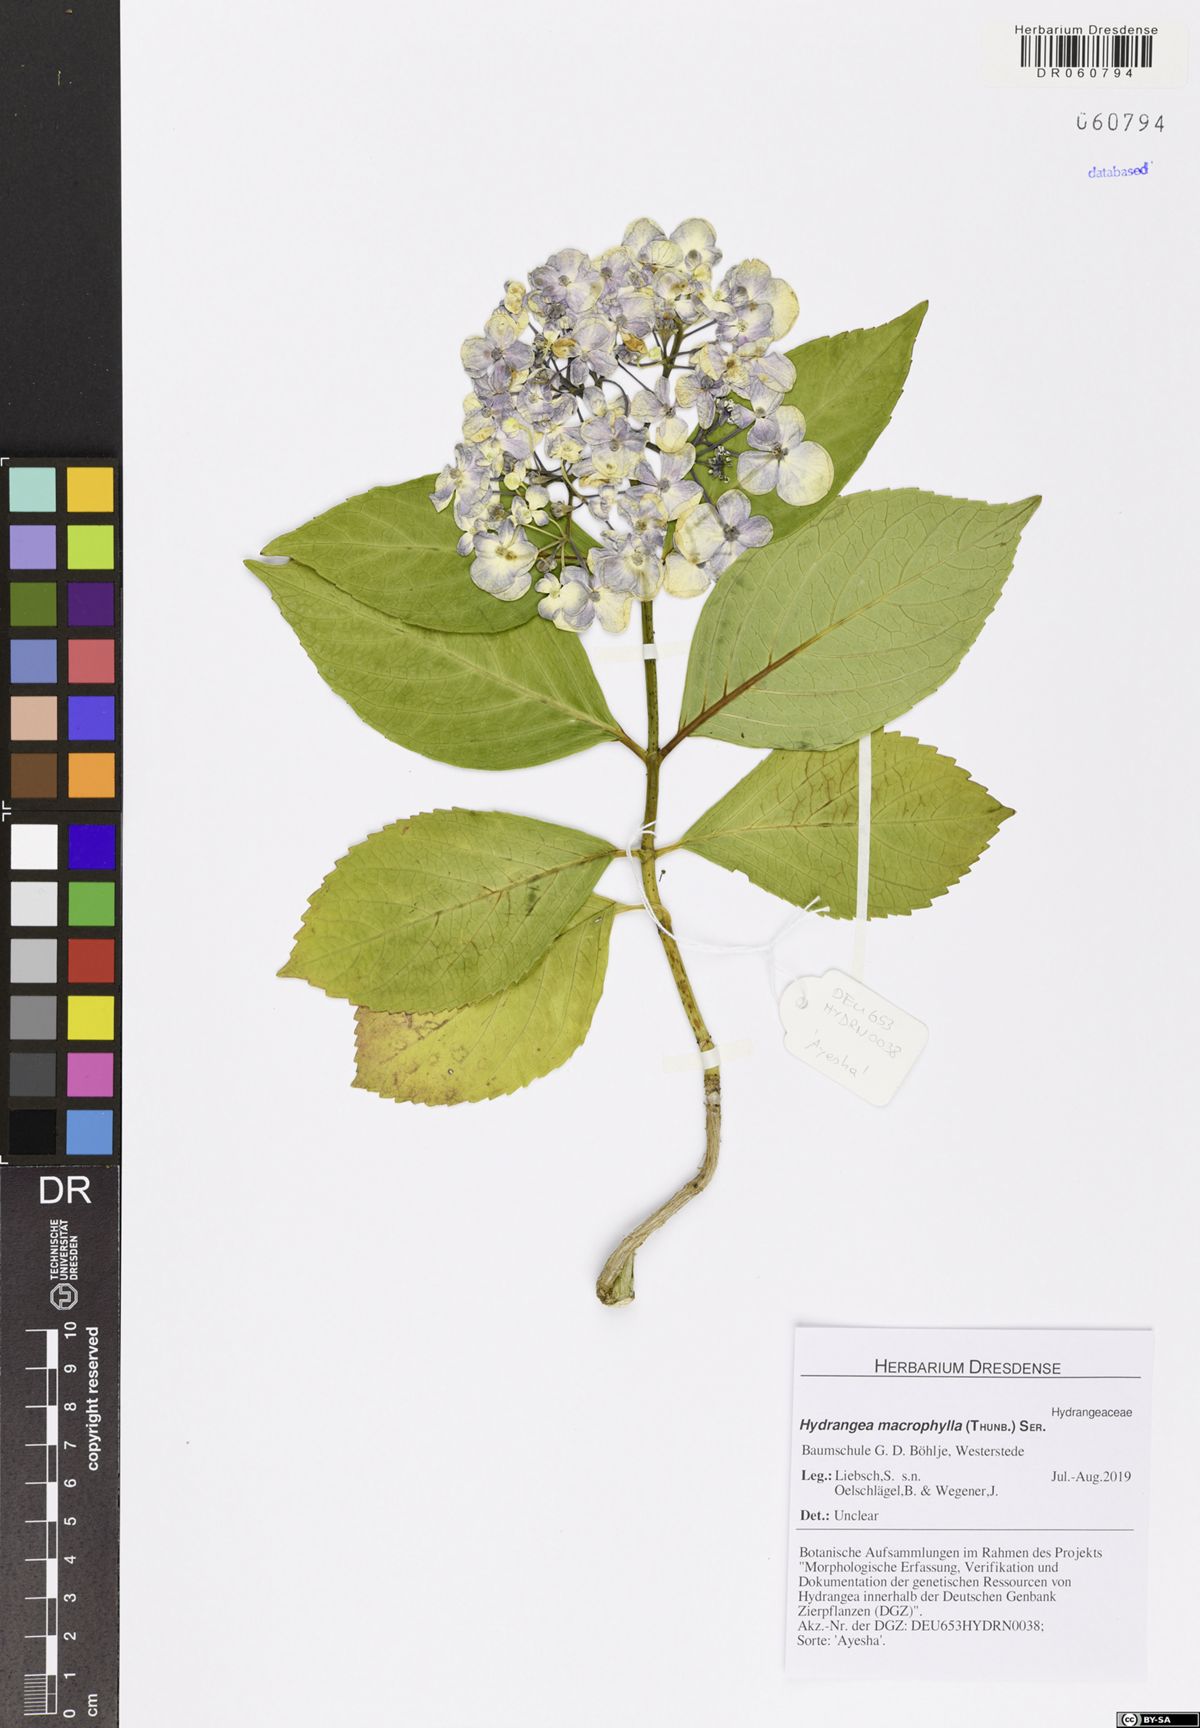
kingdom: Plantae
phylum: Tracheophyta
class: Magnoliopsida
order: Cornales
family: Hydrangeaceae
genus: Hydrangea
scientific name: Hydrangea macrophylla
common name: Hydrangea
